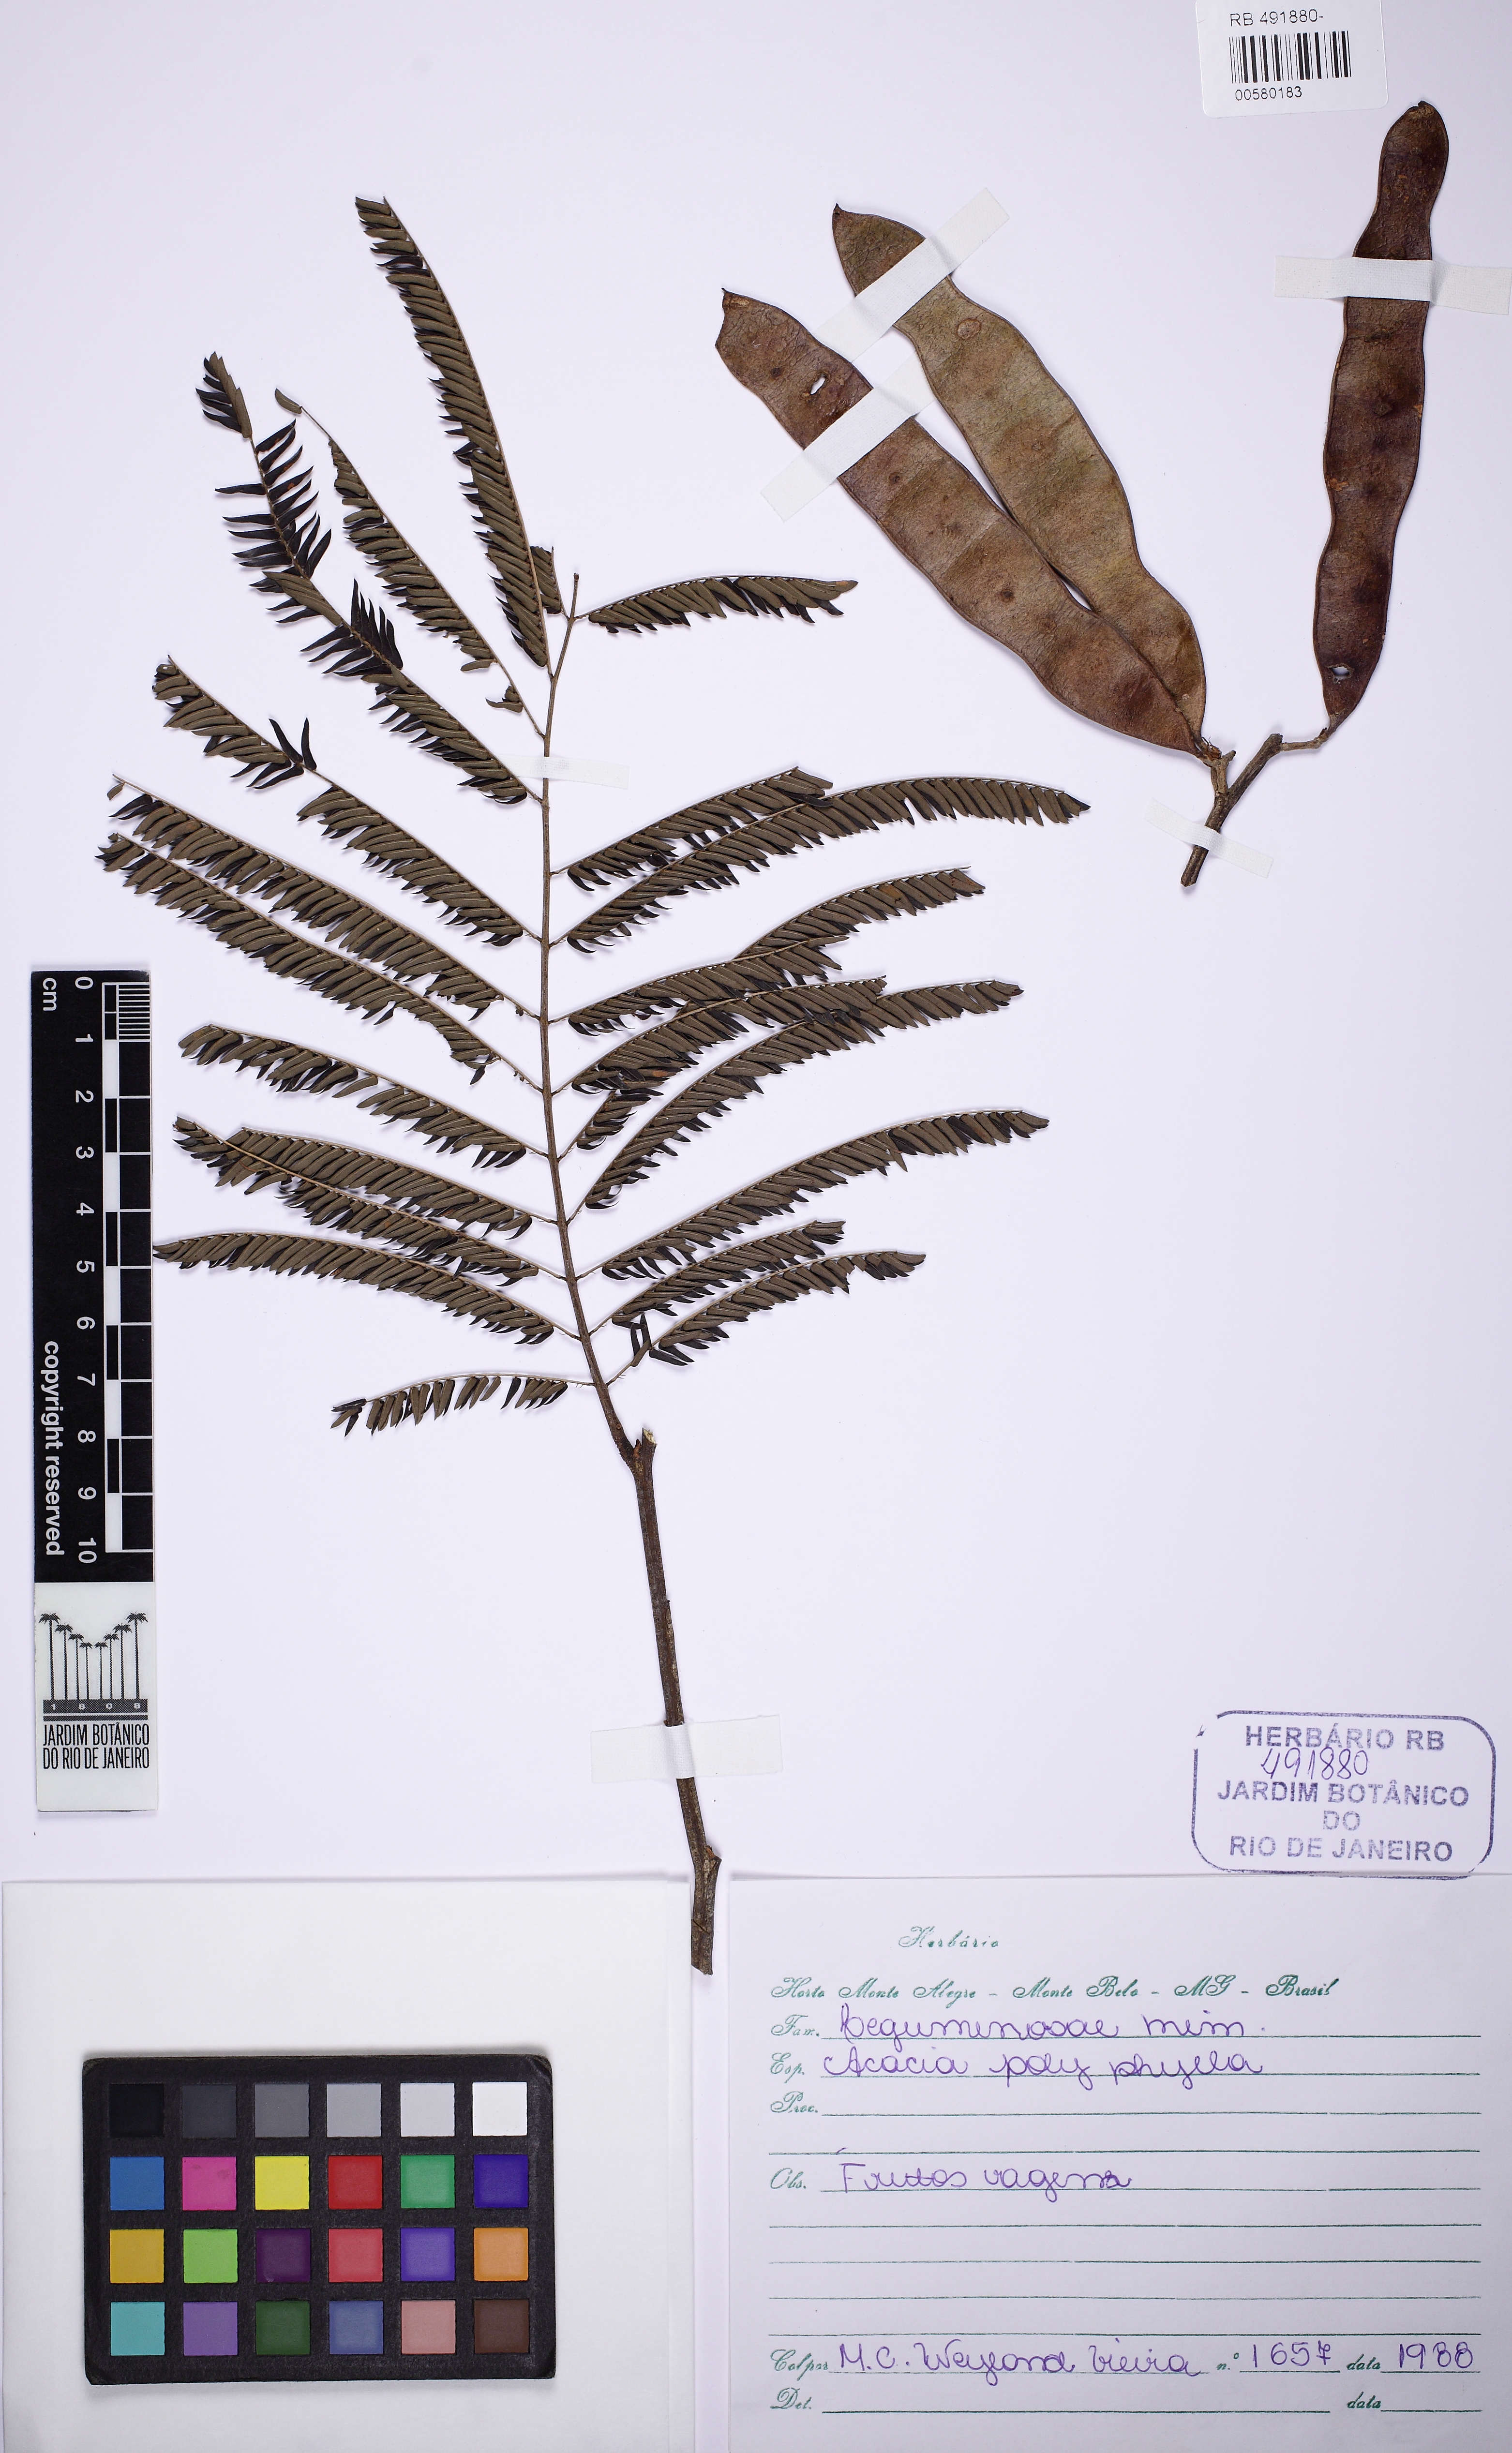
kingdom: Plantae
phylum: Tracheophyta
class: Magnoliopsida
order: Fabales
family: Fabaceae
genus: Senegalia
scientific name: Senegalia polyphylla
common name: White-tamarind
